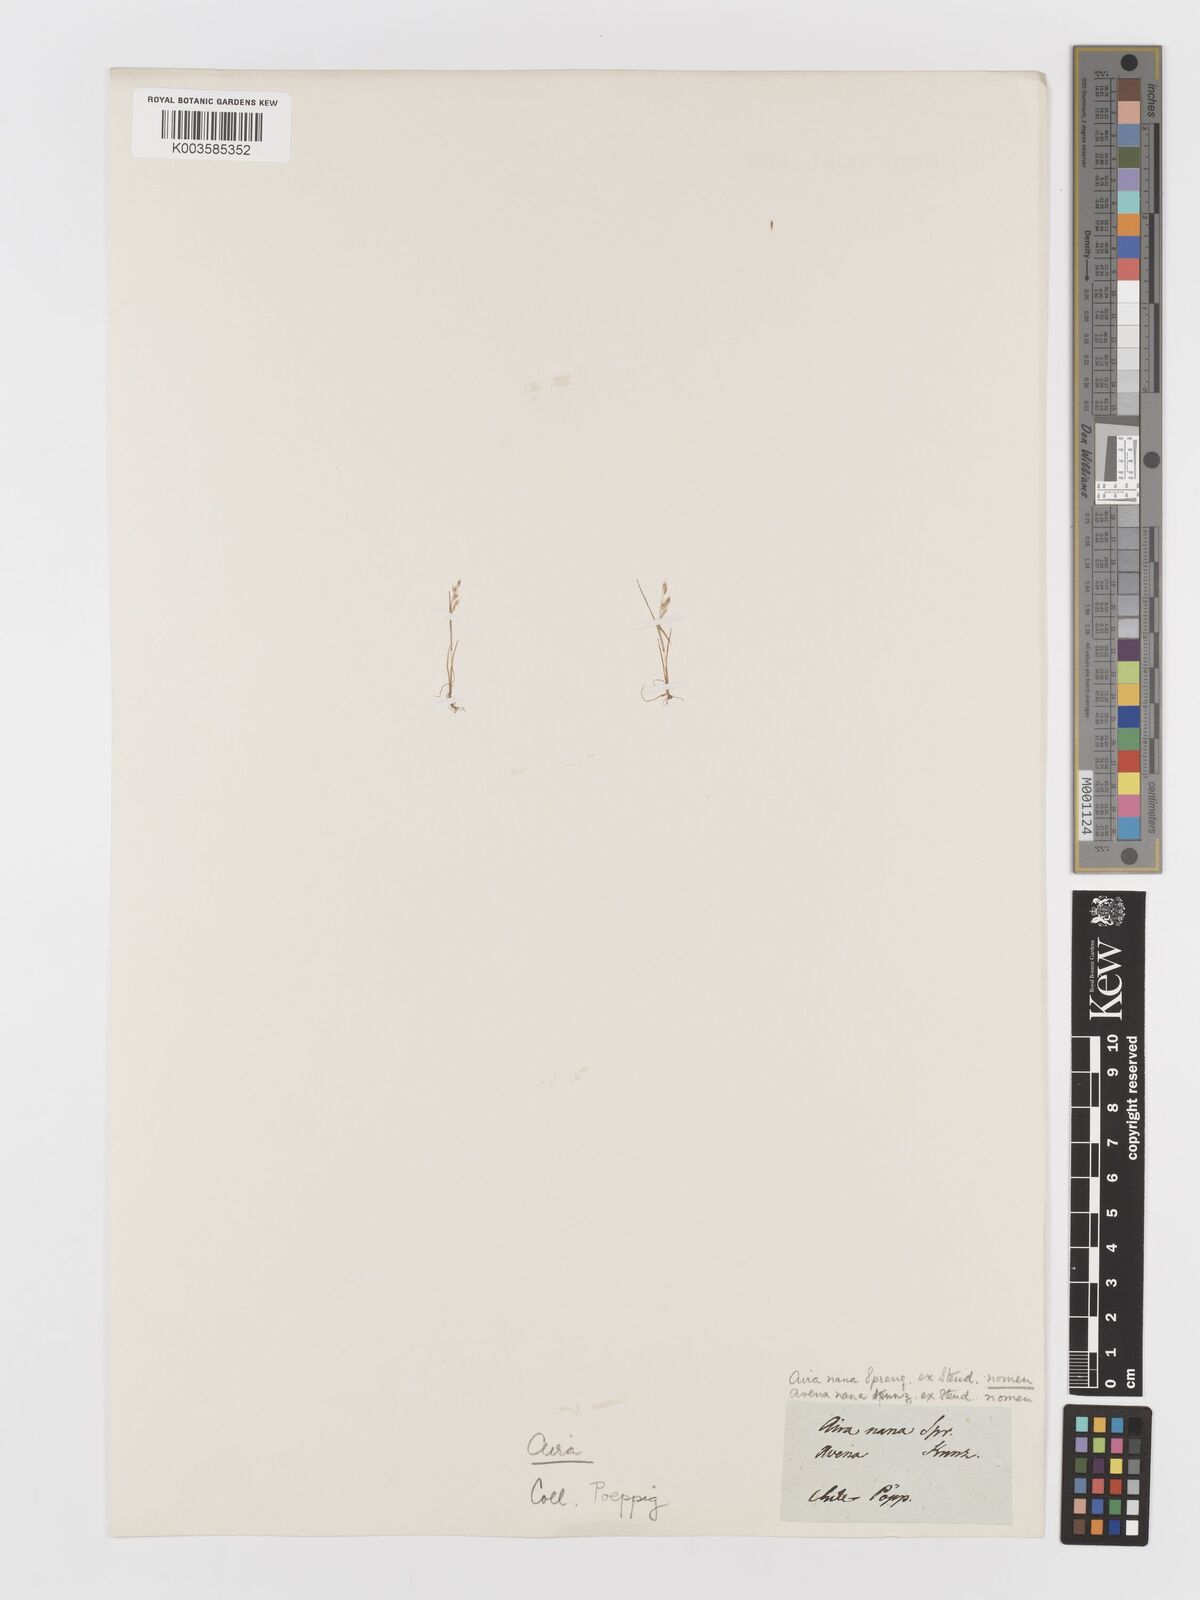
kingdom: Plantae
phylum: Tracheophyta
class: Liliopsida
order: Poales
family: Poaceae
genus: Aira
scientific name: Aira praecox
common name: Early hair-grass
